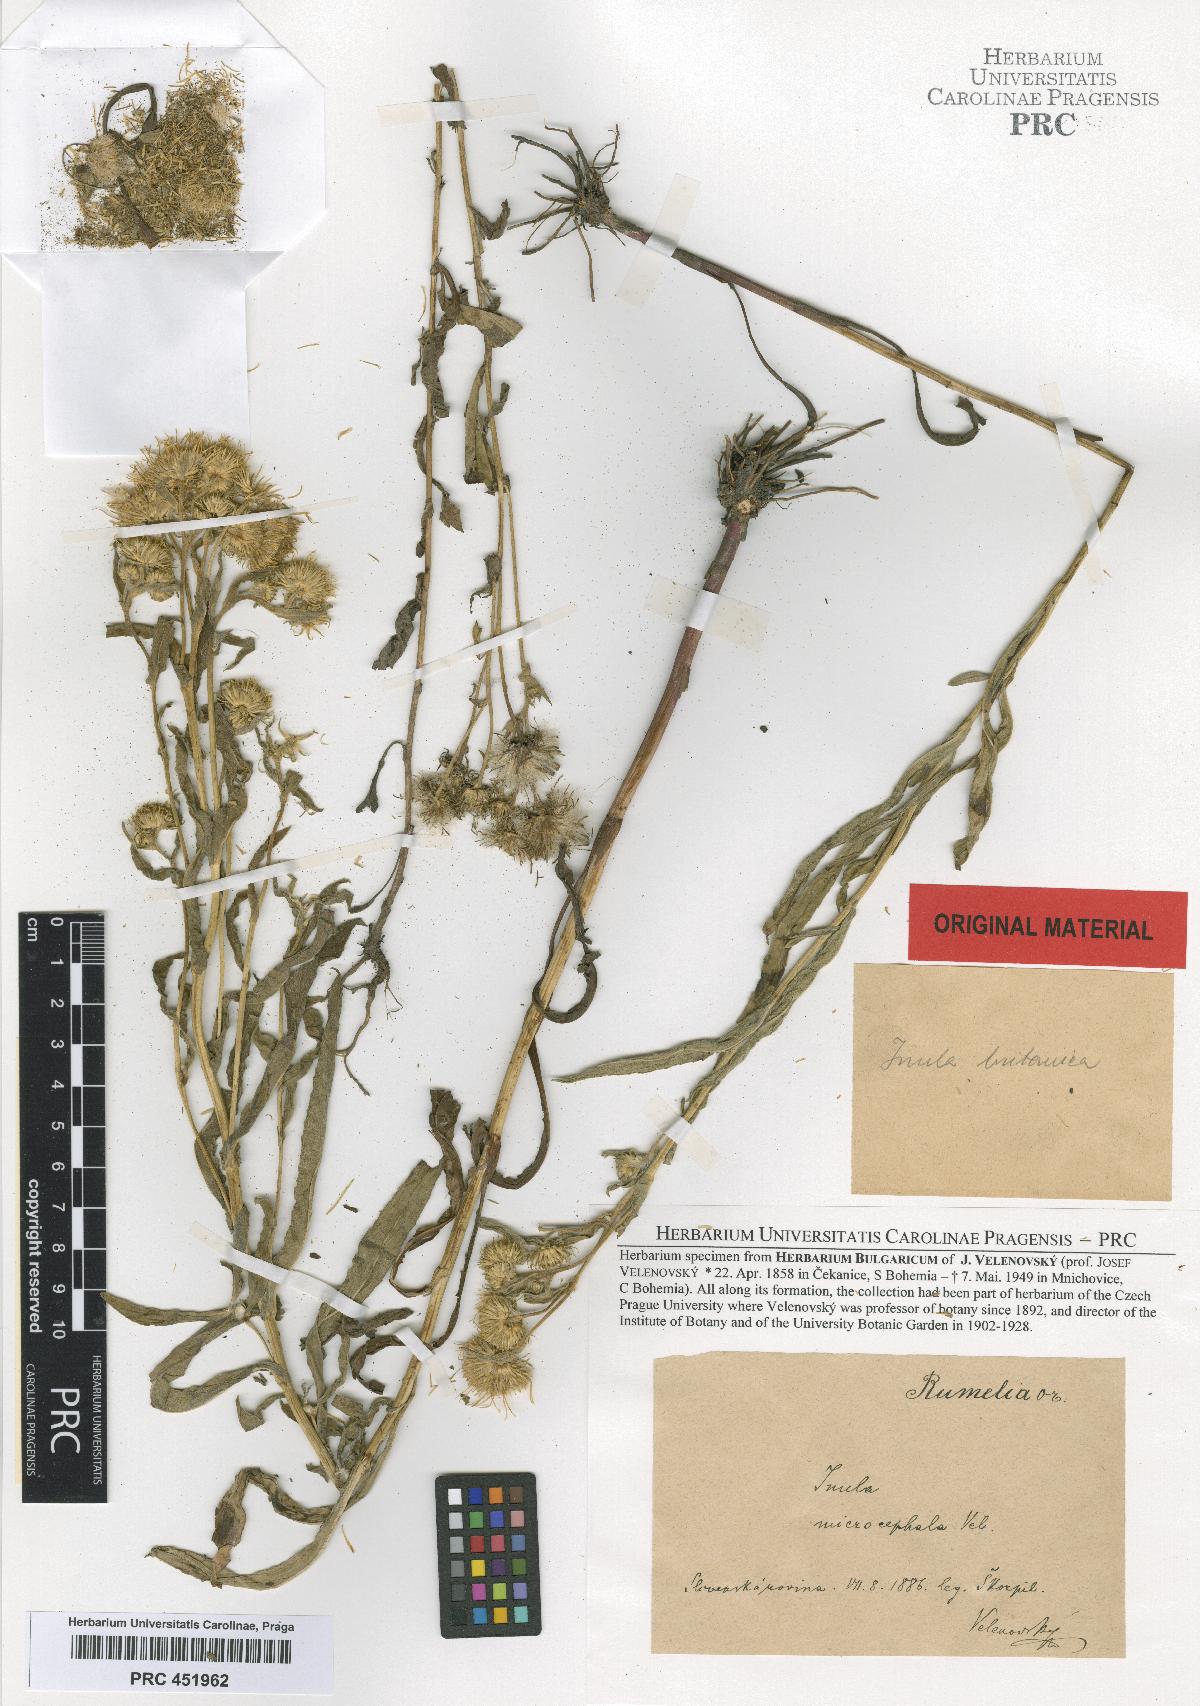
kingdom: Plantae
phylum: Tracheophyta
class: Magnoliopsida
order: Asterales
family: Asteraceae
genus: Pentanema
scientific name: Pentanema britannicum
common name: British elecampane
